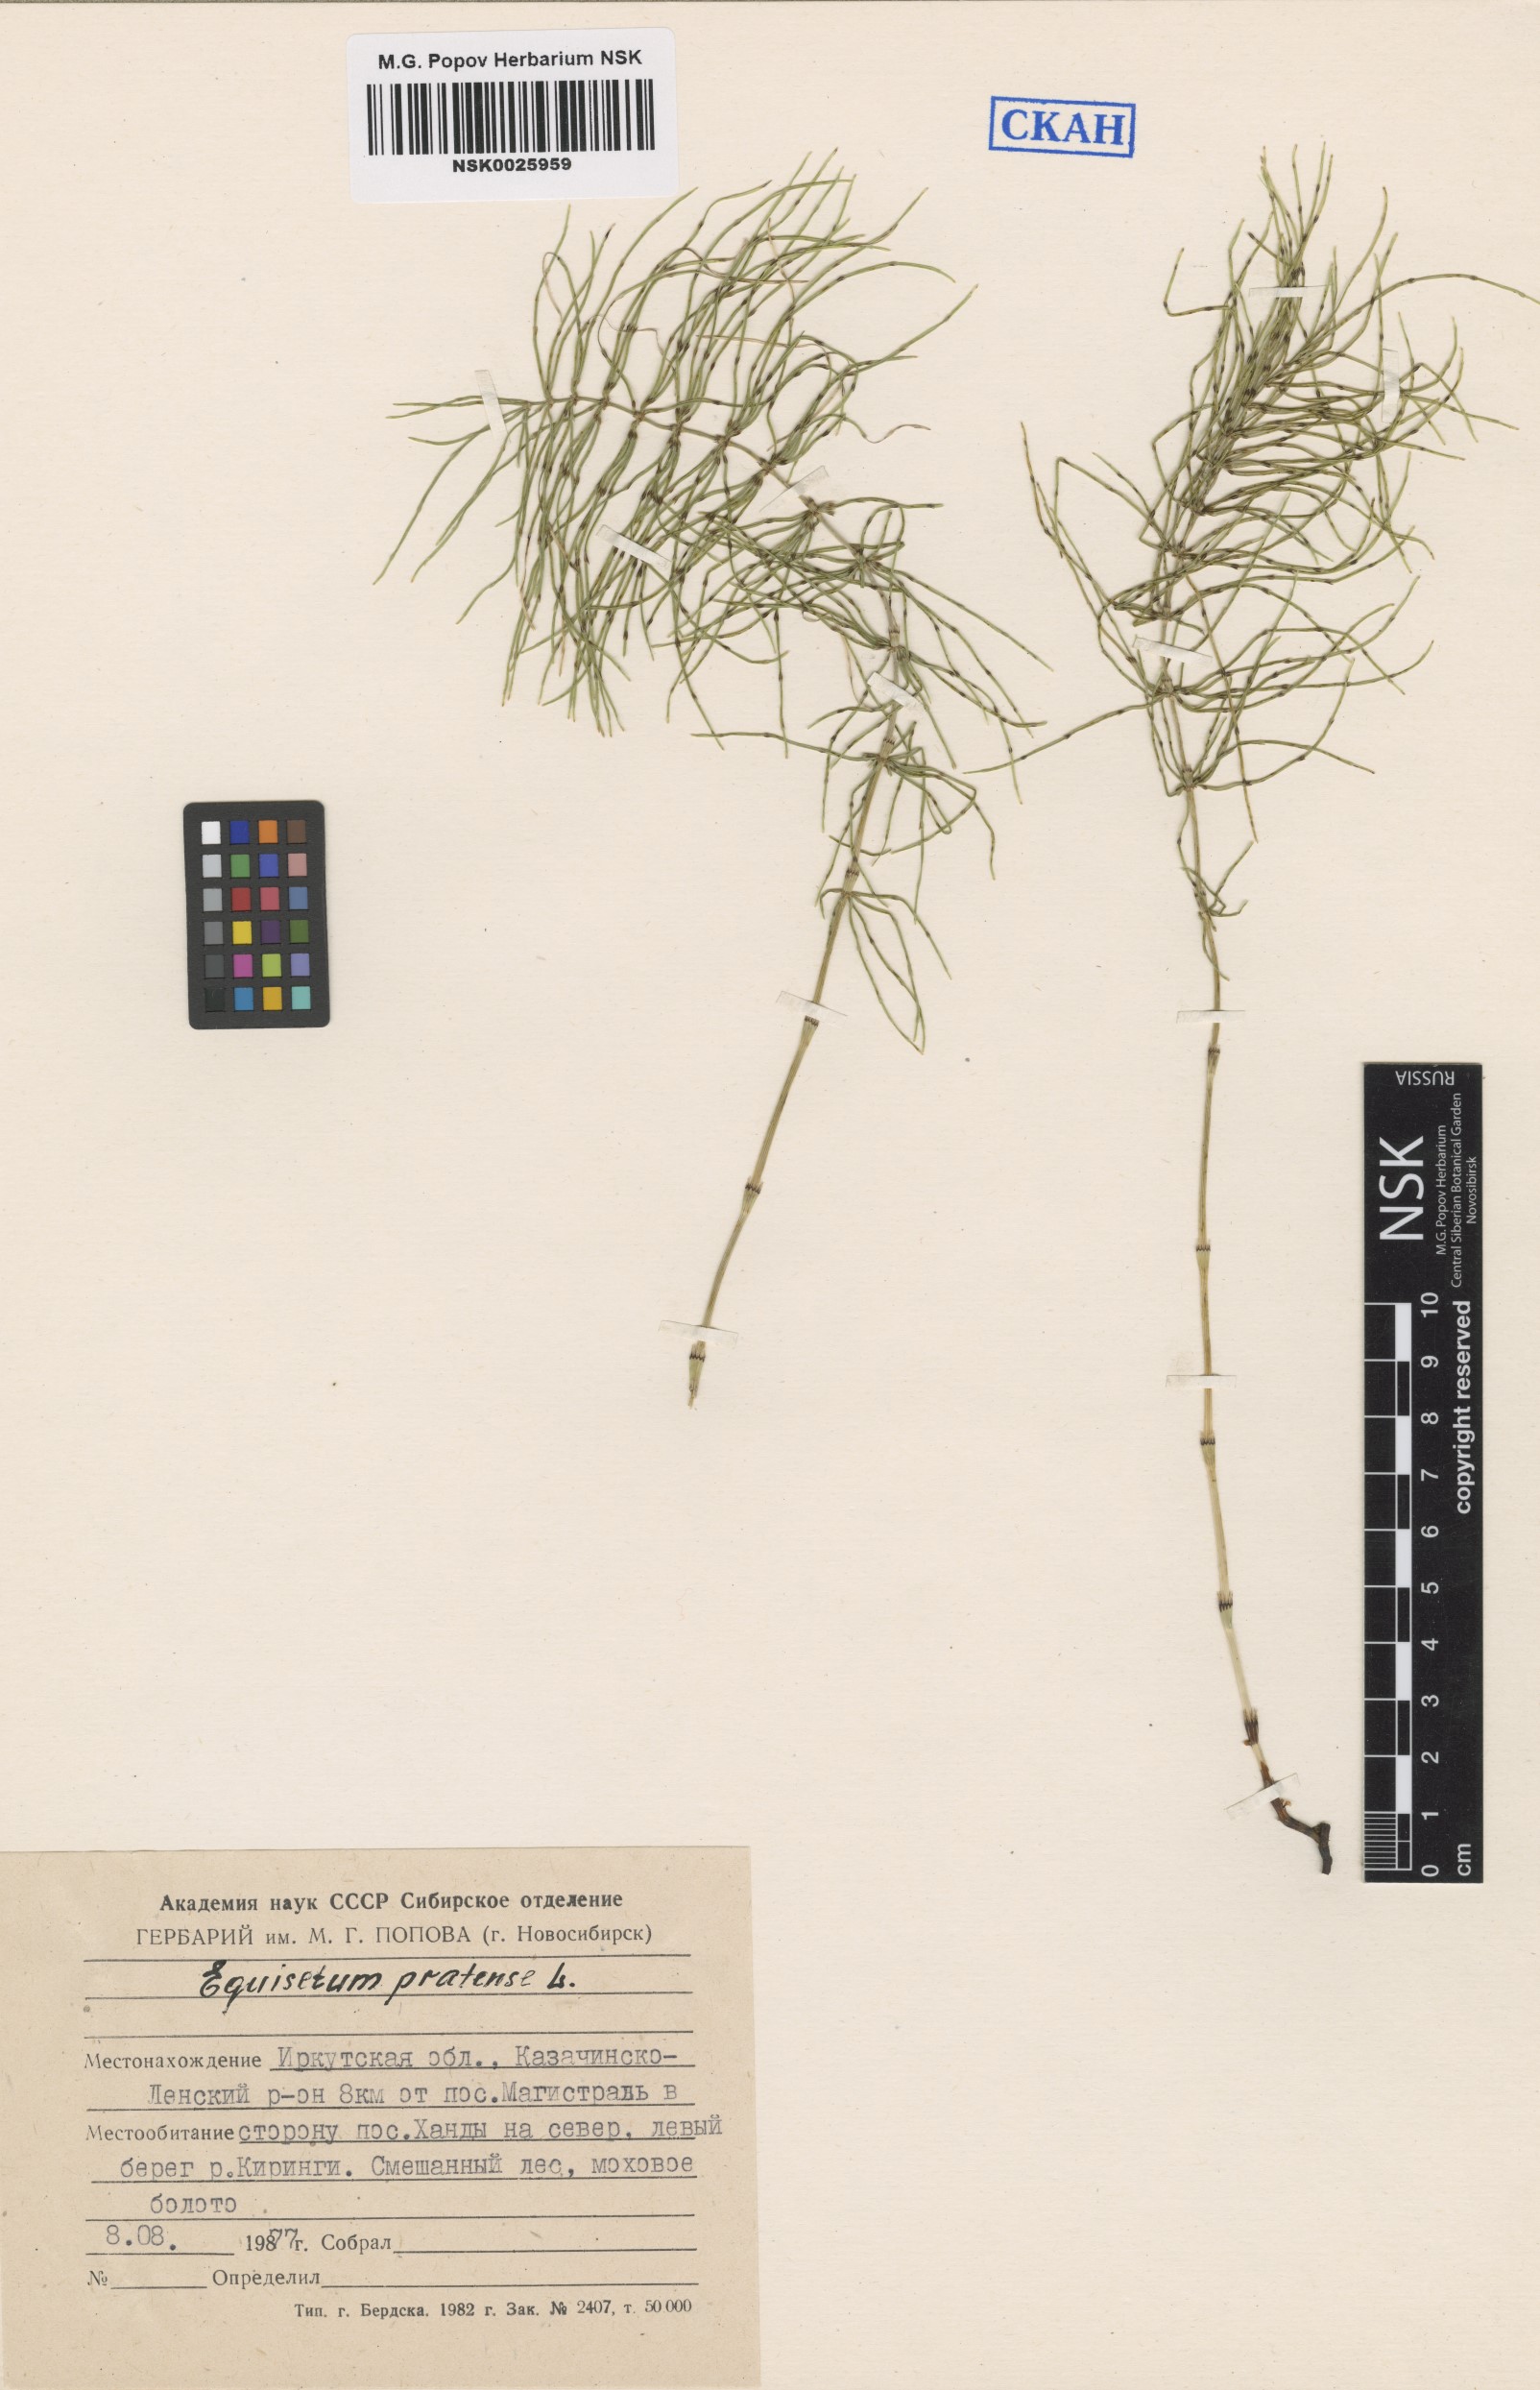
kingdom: Plantae
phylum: Tracheophyta
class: Polypodiopsida
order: Equisetales
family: Equisetaceae
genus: Equisetum
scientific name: Equisetum pratense
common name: Meadow horsetail
